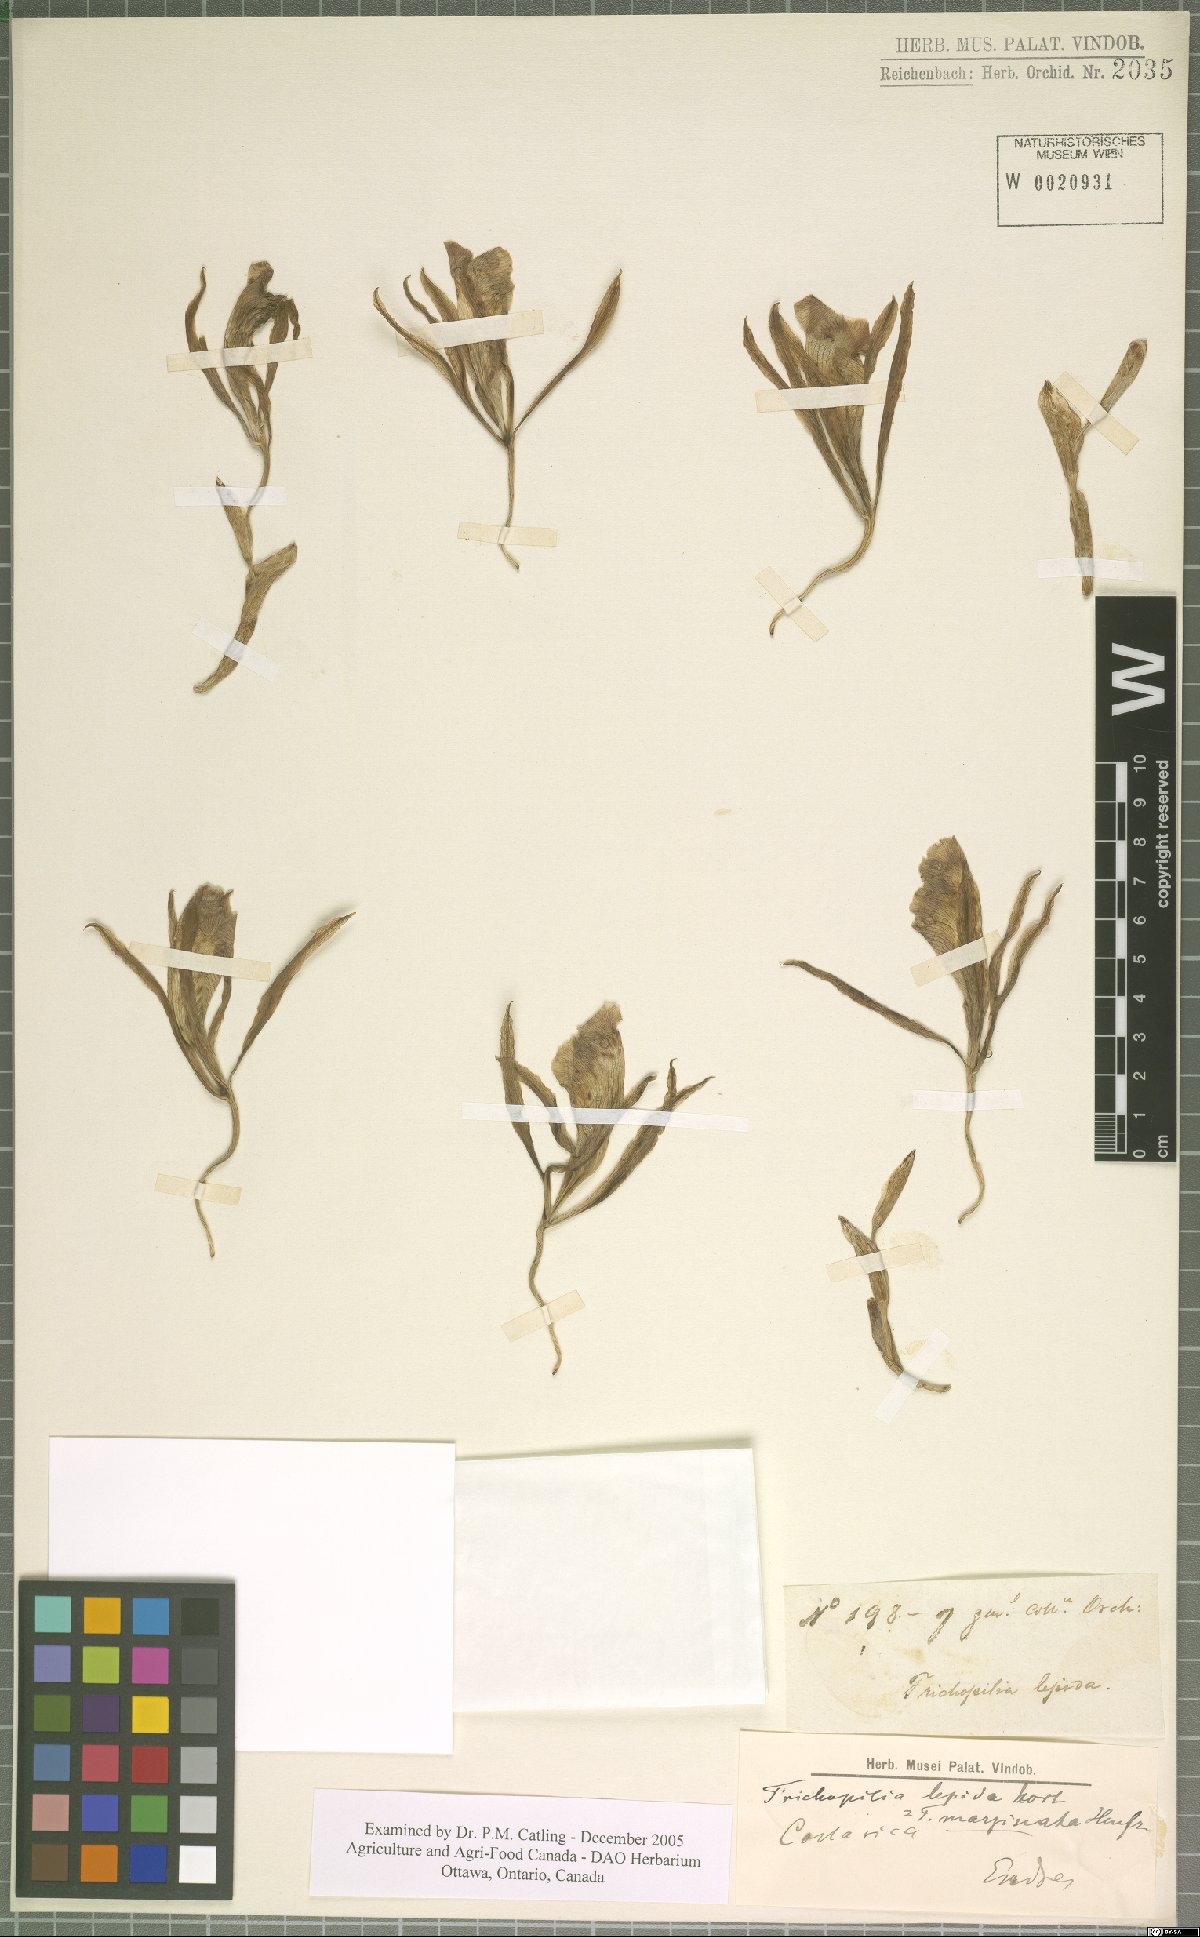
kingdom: Plantae
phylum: Tracheophyta
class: Liliopsida
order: Asparagales
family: Orchidaceae
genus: Trichopilia
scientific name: Trichopilia marginata
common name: Rimmed trichopilia
